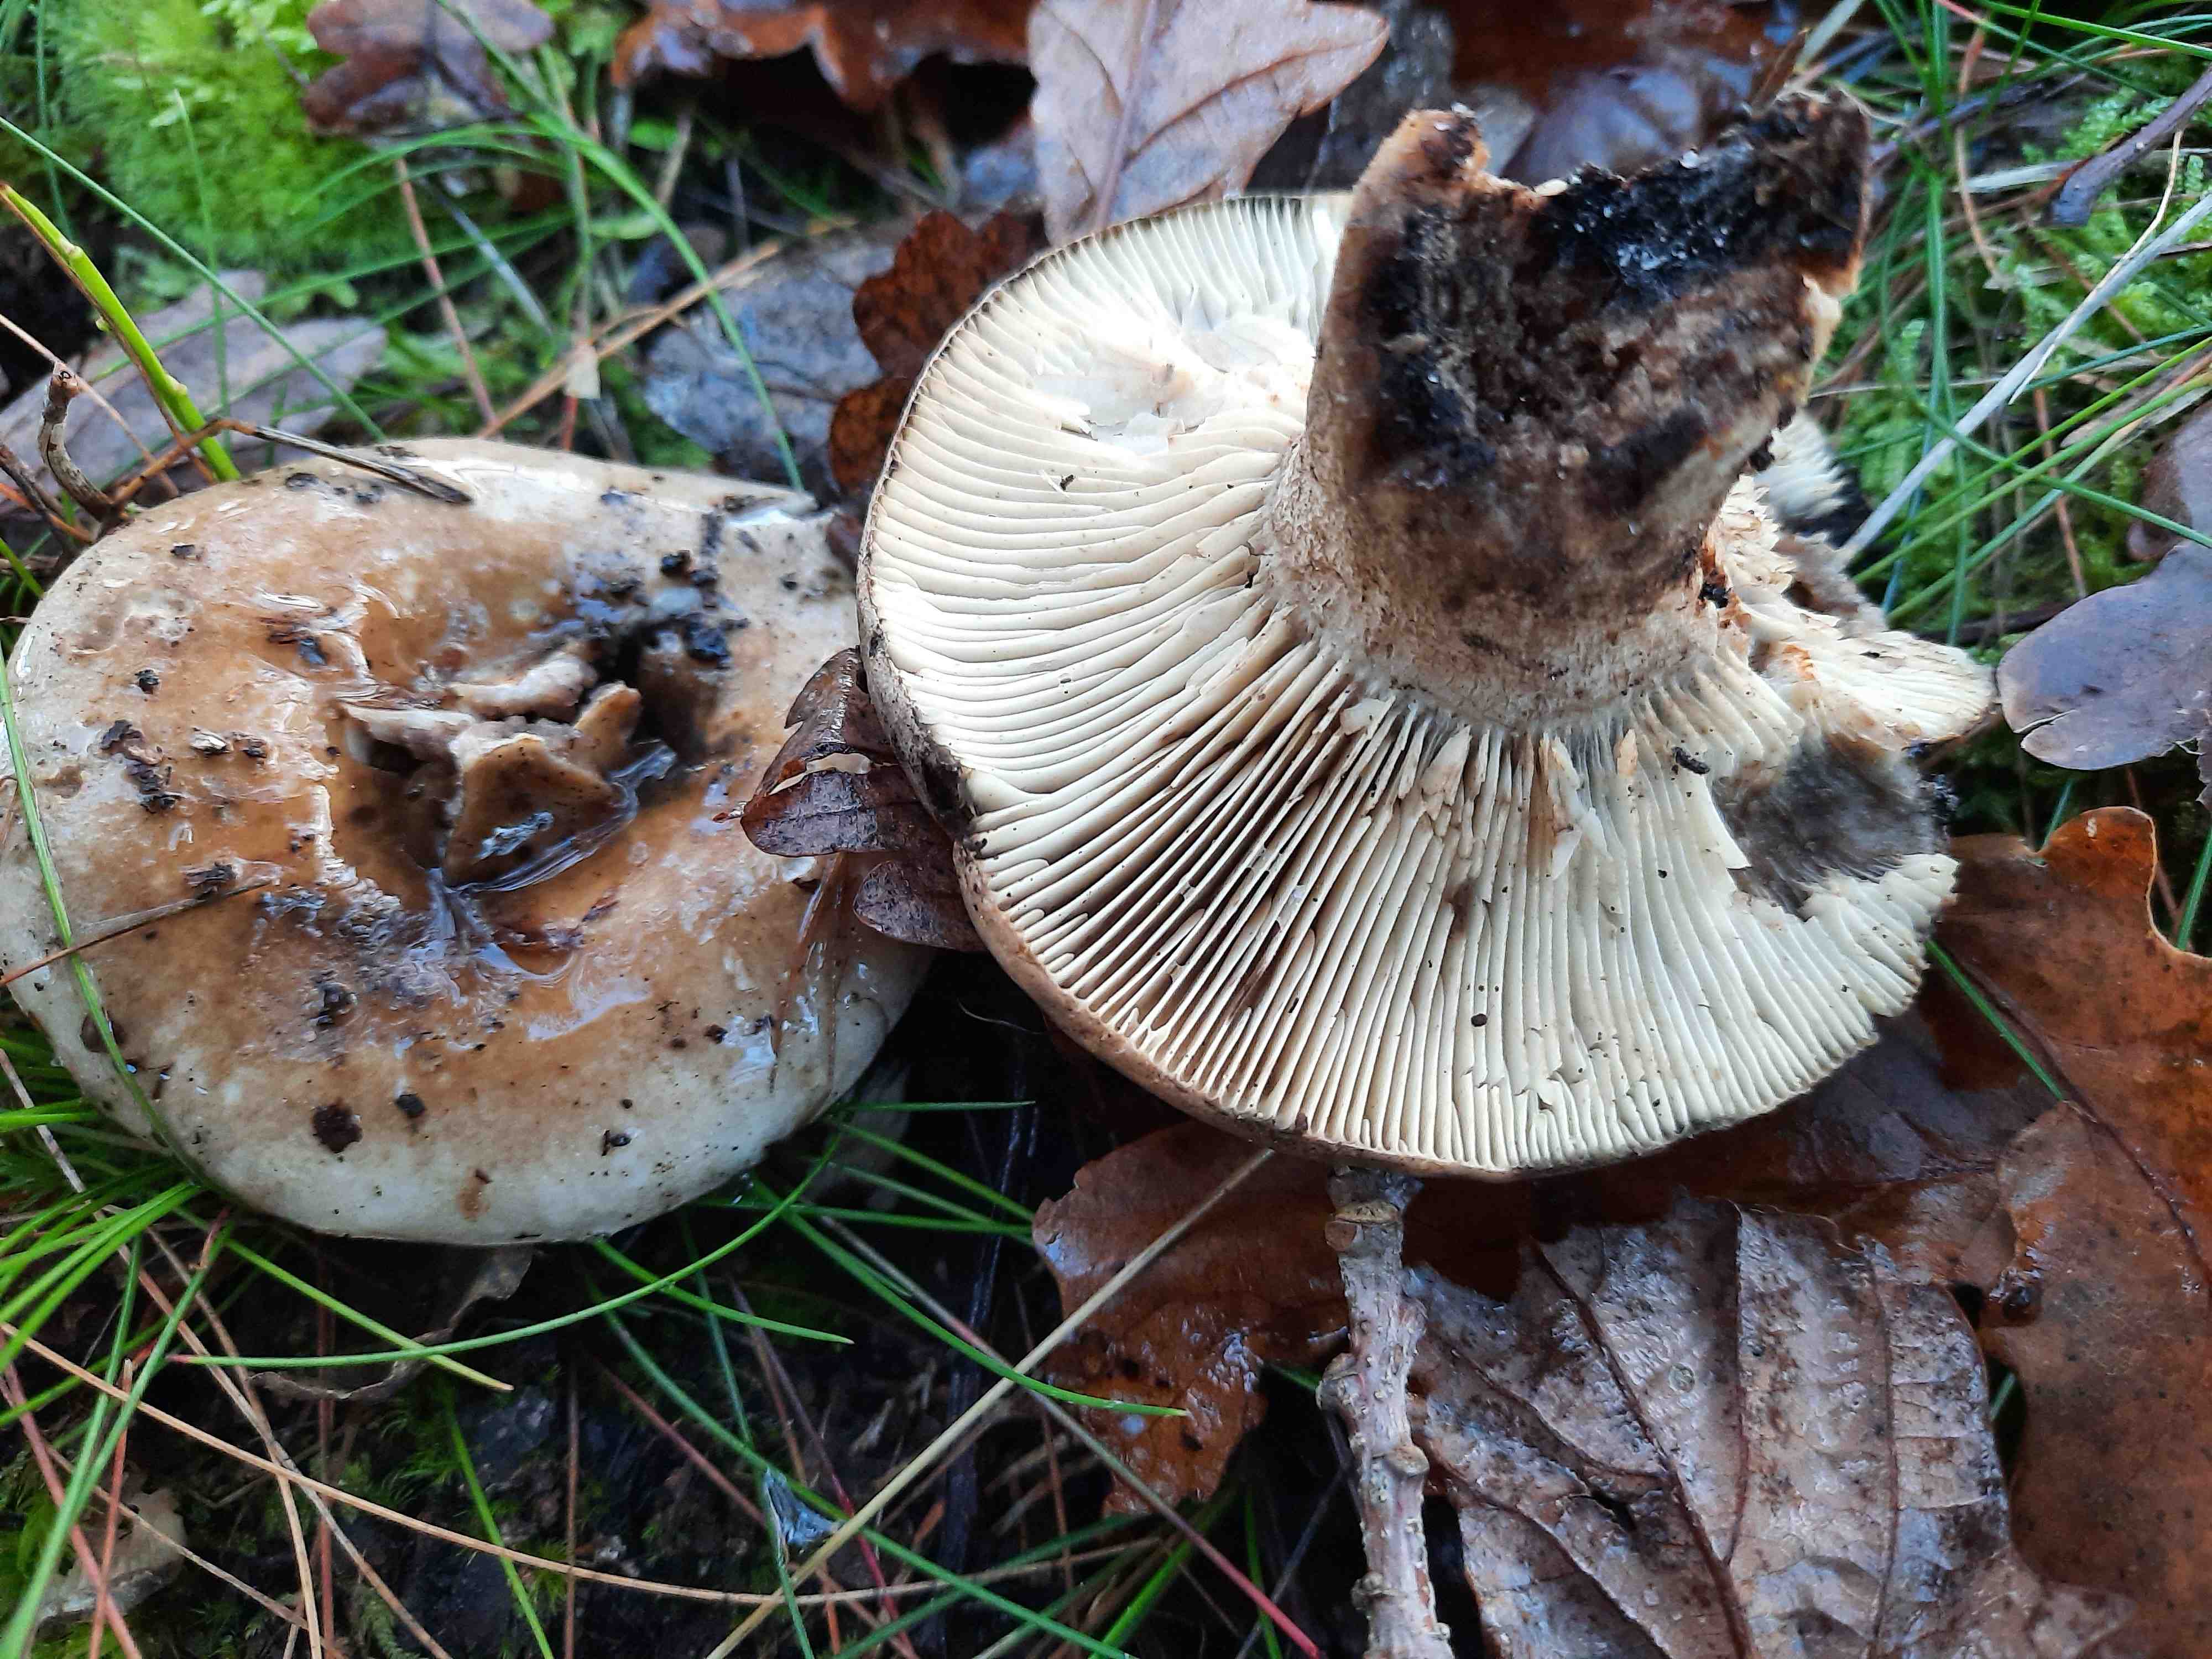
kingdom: Fungi
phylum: Basidiomycota
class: Agaricomycetes
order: Russulales
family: Russulaceae
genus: Russula
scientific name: Russula acrifolia
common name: skarpbladet skørhat
